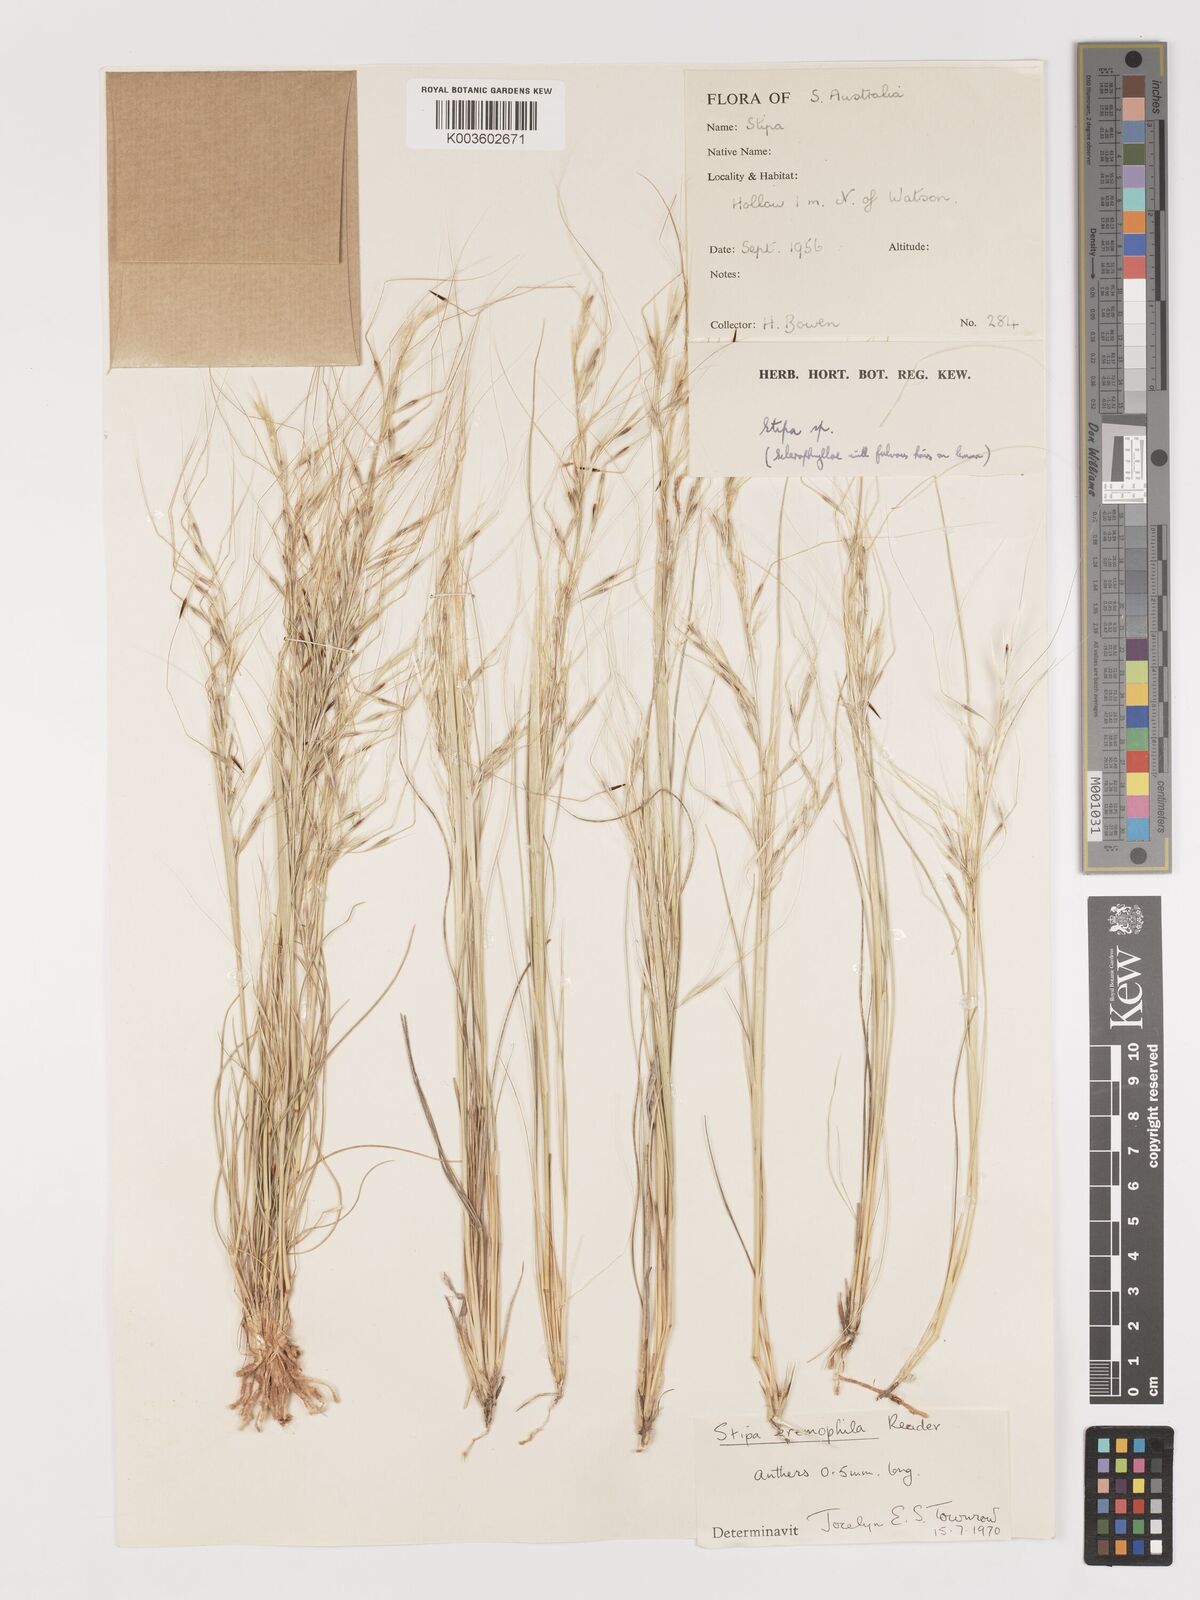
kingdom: Plantae
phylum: Tracheophyta
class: Liliopsida
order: Poales
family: Poaceae
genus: Austrostipa
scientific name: Austrostipa eremophila
